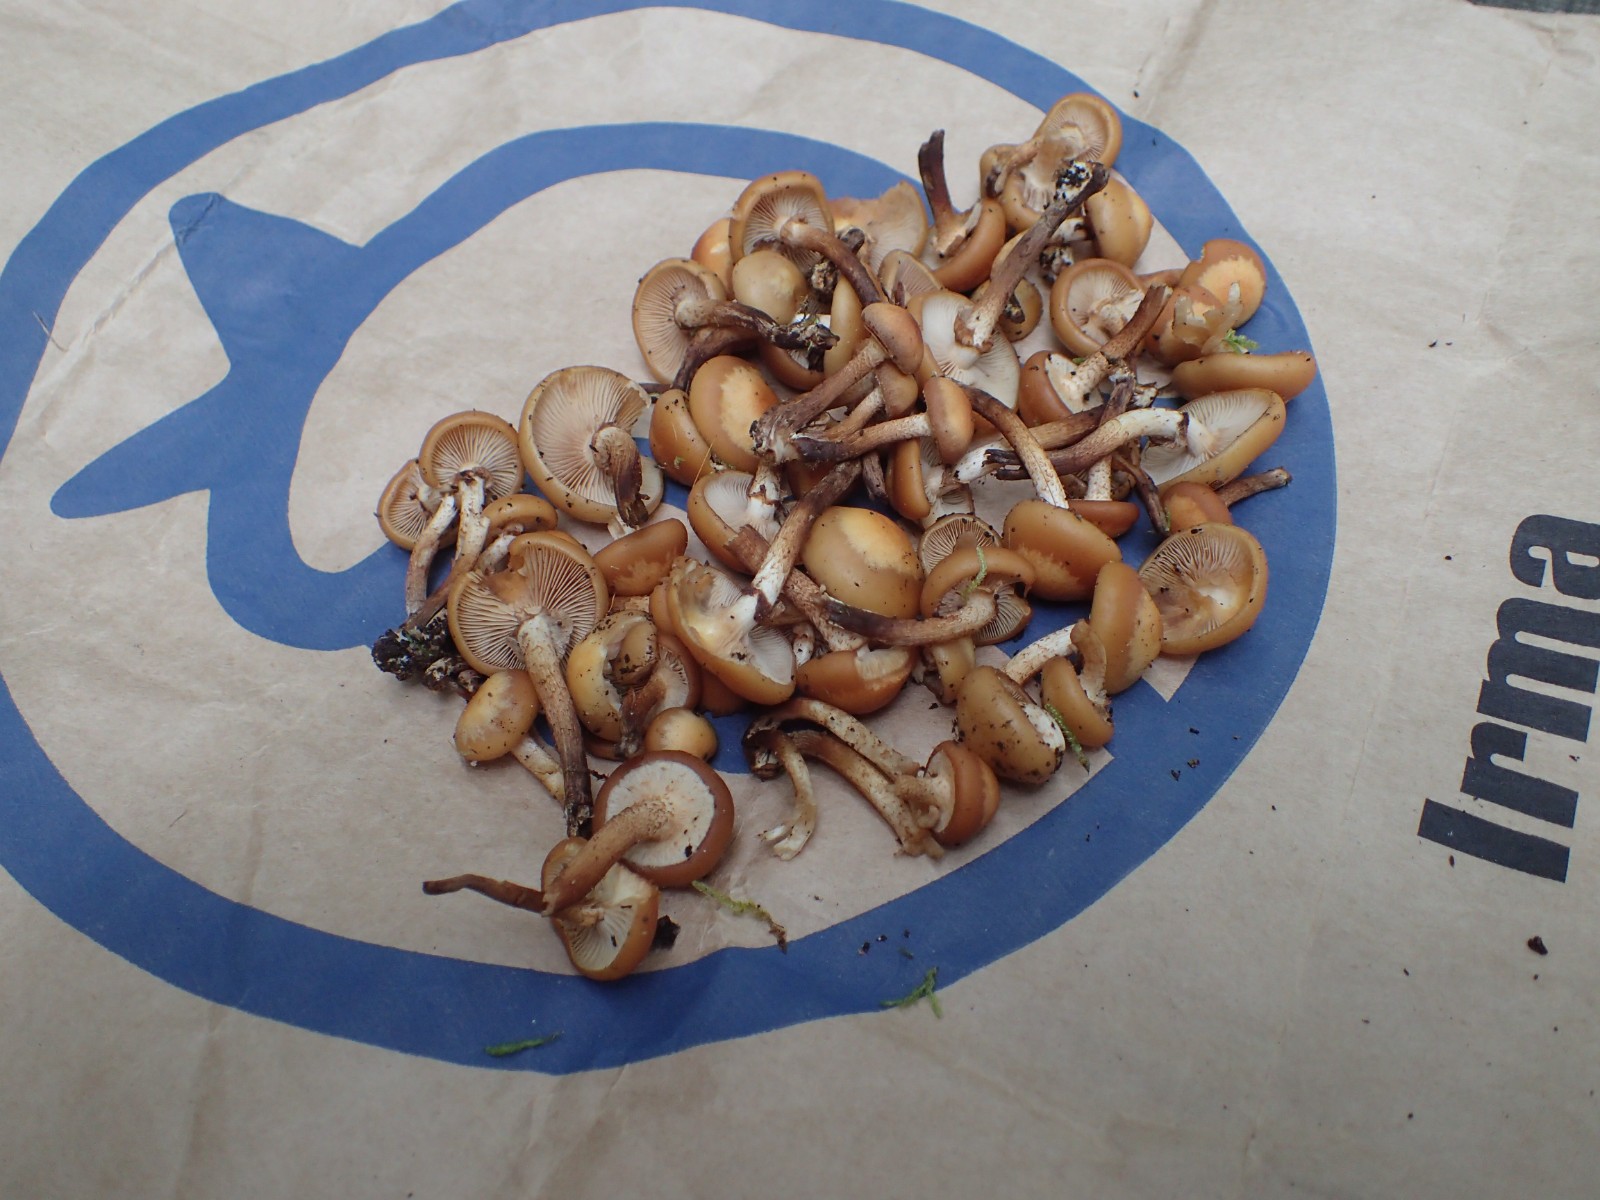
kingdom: Fungi
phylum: Basidiomycota
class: Agaricomycetes
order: Agaricales
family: Strophariaceae
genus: Kuehneromyces
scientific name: Kuehneromyces mutabilis
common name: foranderlig skælhat
